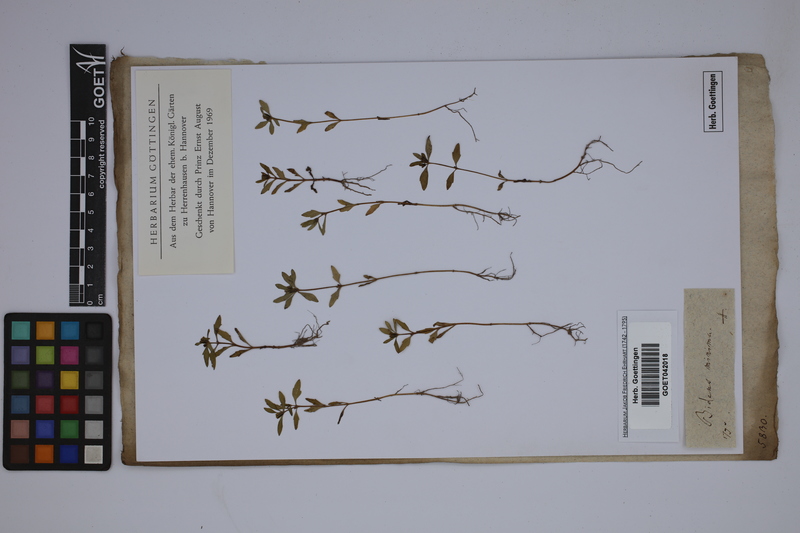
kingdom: Plantae
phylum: Tracheophyta
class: Magnoliopsida
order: Asterales
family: Asteraceae
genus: Bidens
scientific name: Bidens cernua
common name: Nodding bur-marigold
